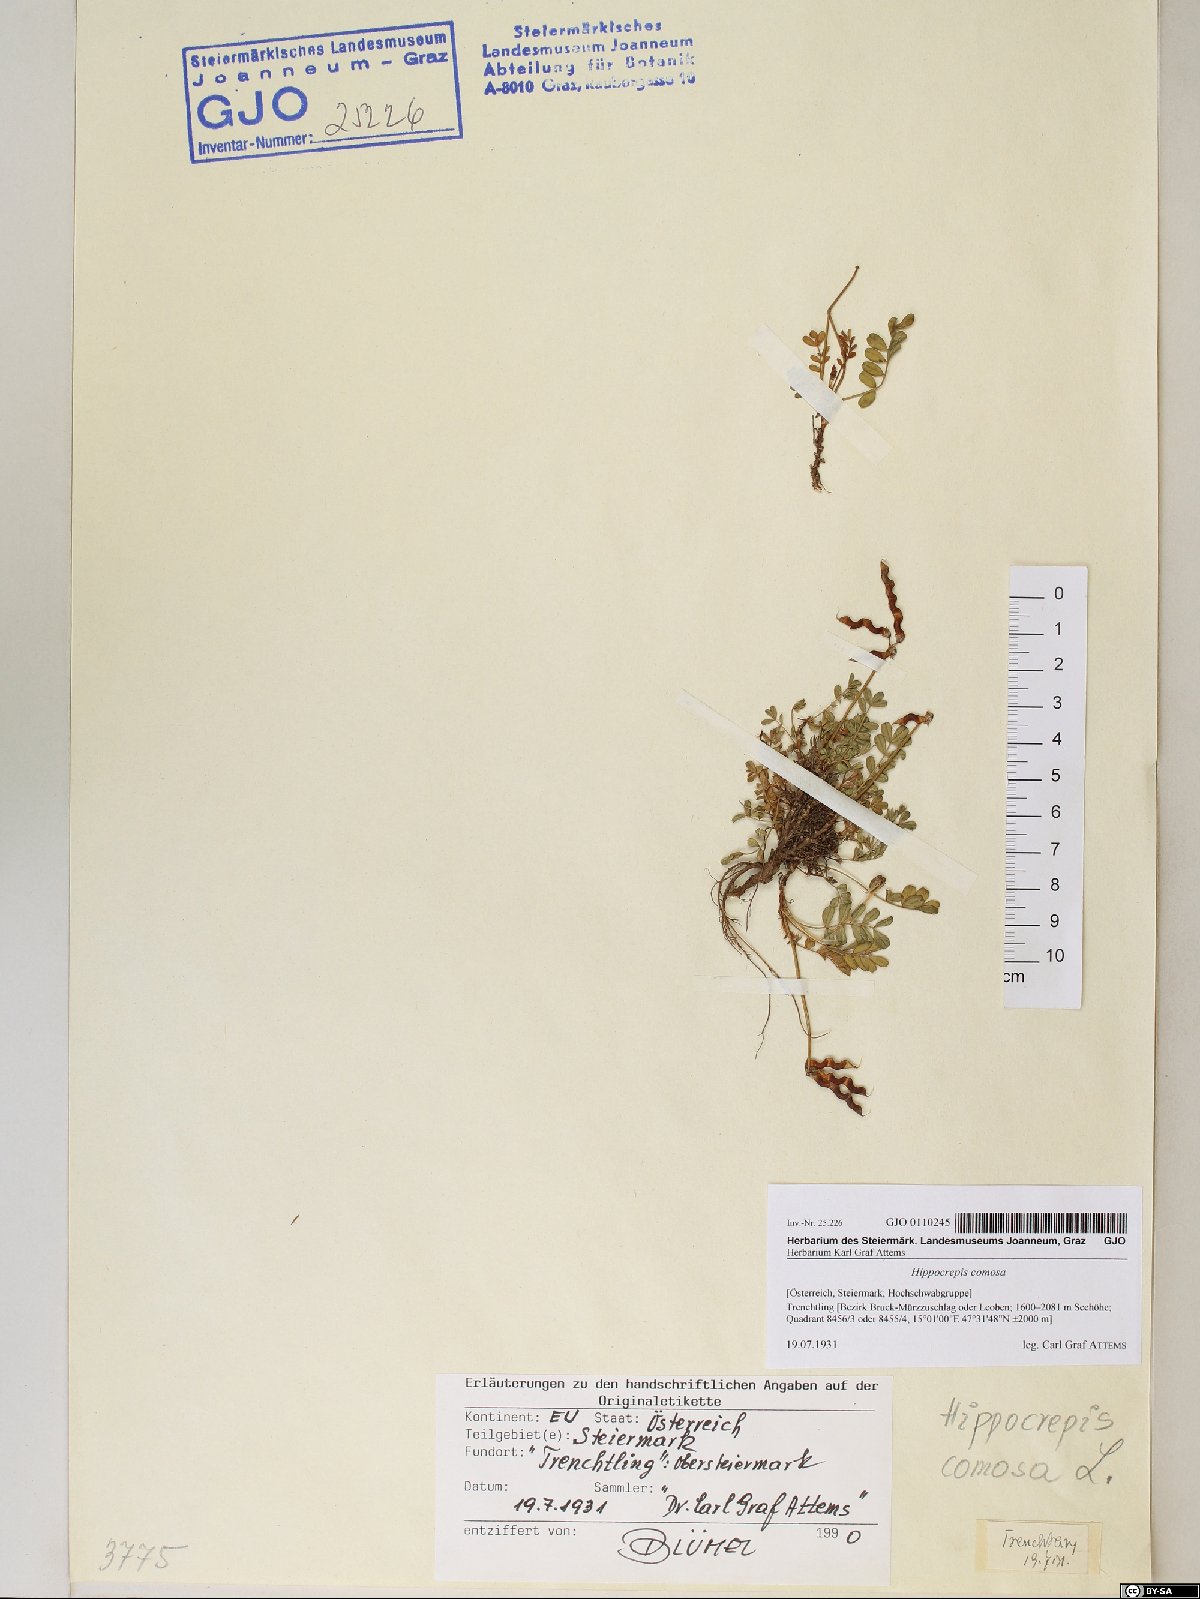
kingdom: Plantae
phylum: Tracheophyta
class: Magnoliopsida
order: Fabales
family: Fabaceae
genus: Hippocrepis
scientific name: Hippocrepis comosa
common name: Horseshoe vetch
